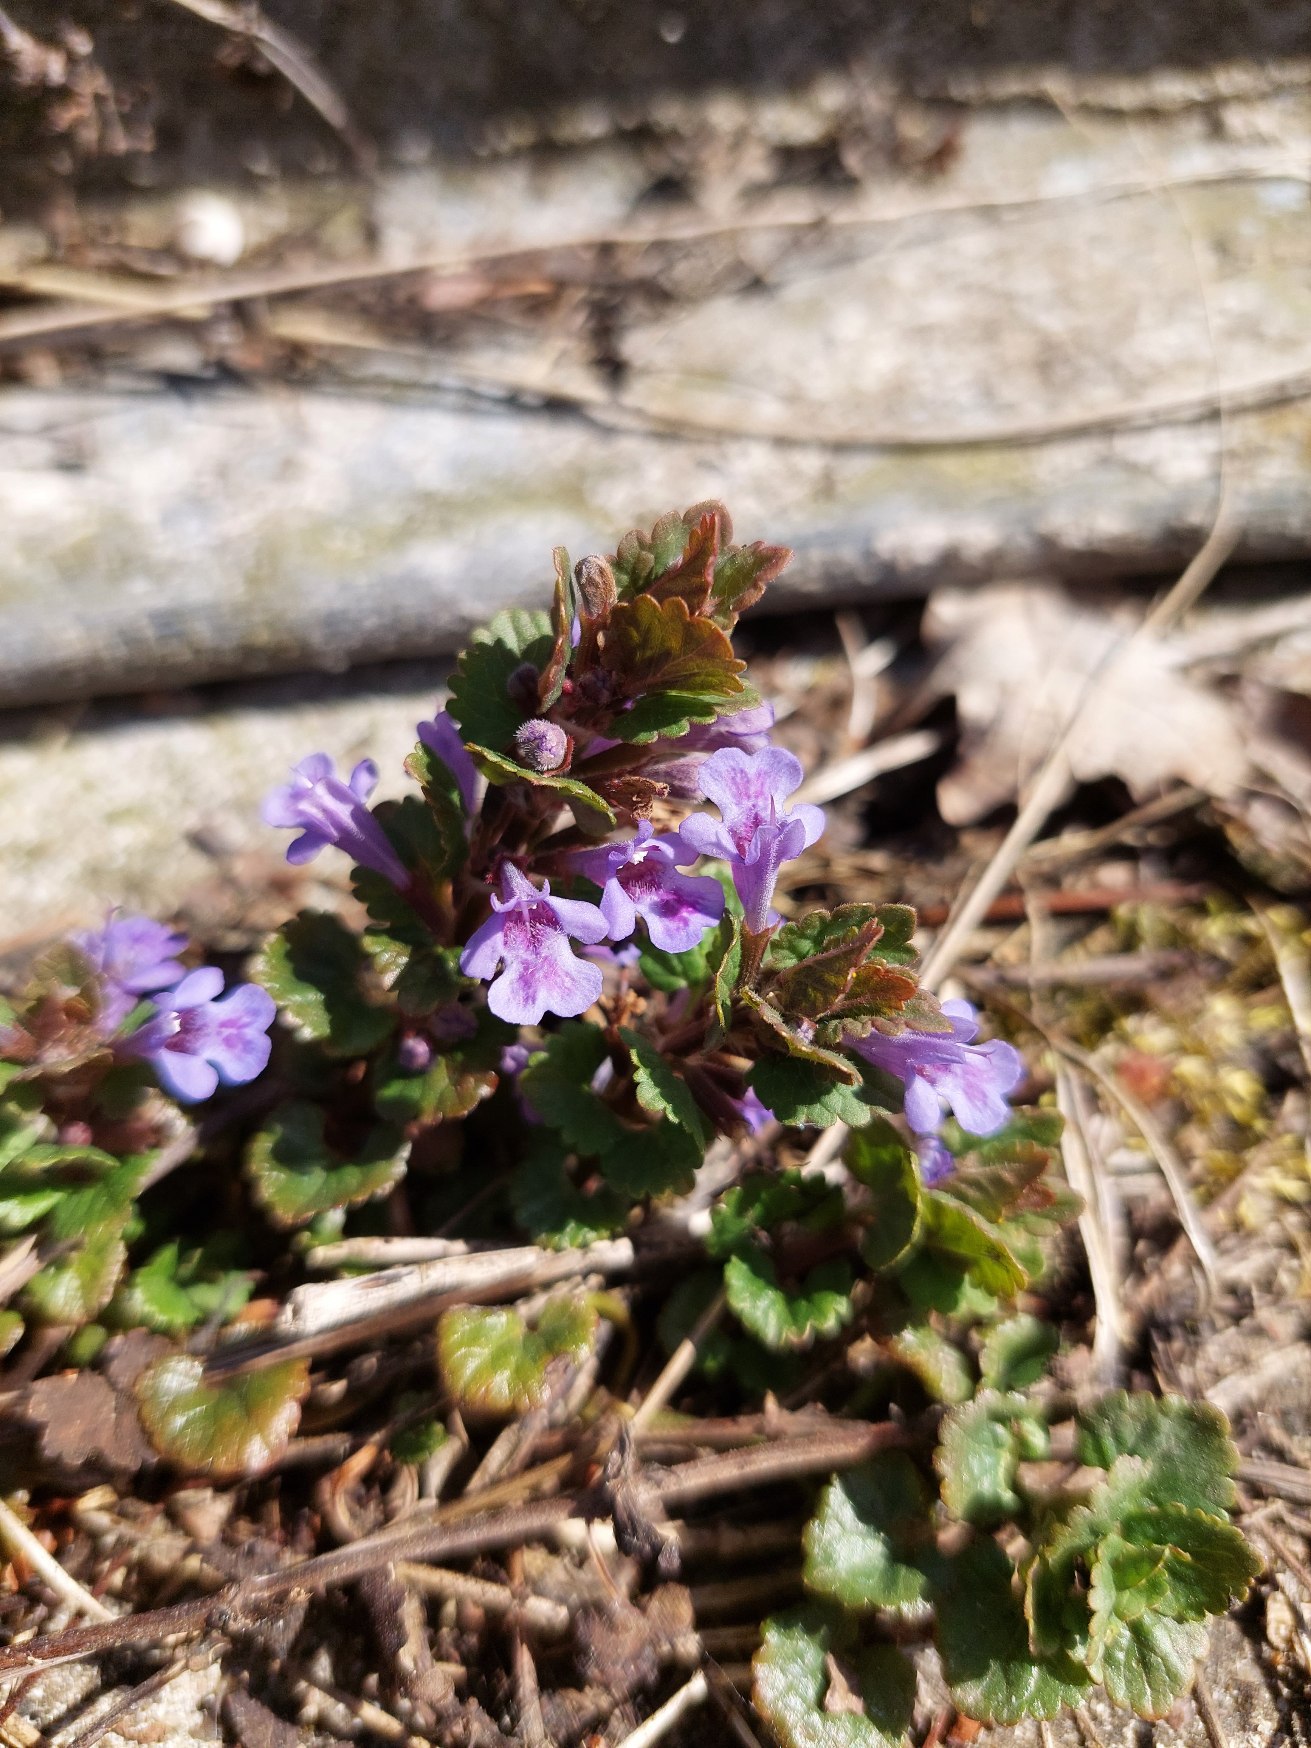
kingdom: Plantae
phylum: Tracheophyta
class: Magnoliopsida
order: Lamiales
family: Lamiaceae
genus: Glechoma
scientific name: Glechoma hederacea
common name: Korsknap
